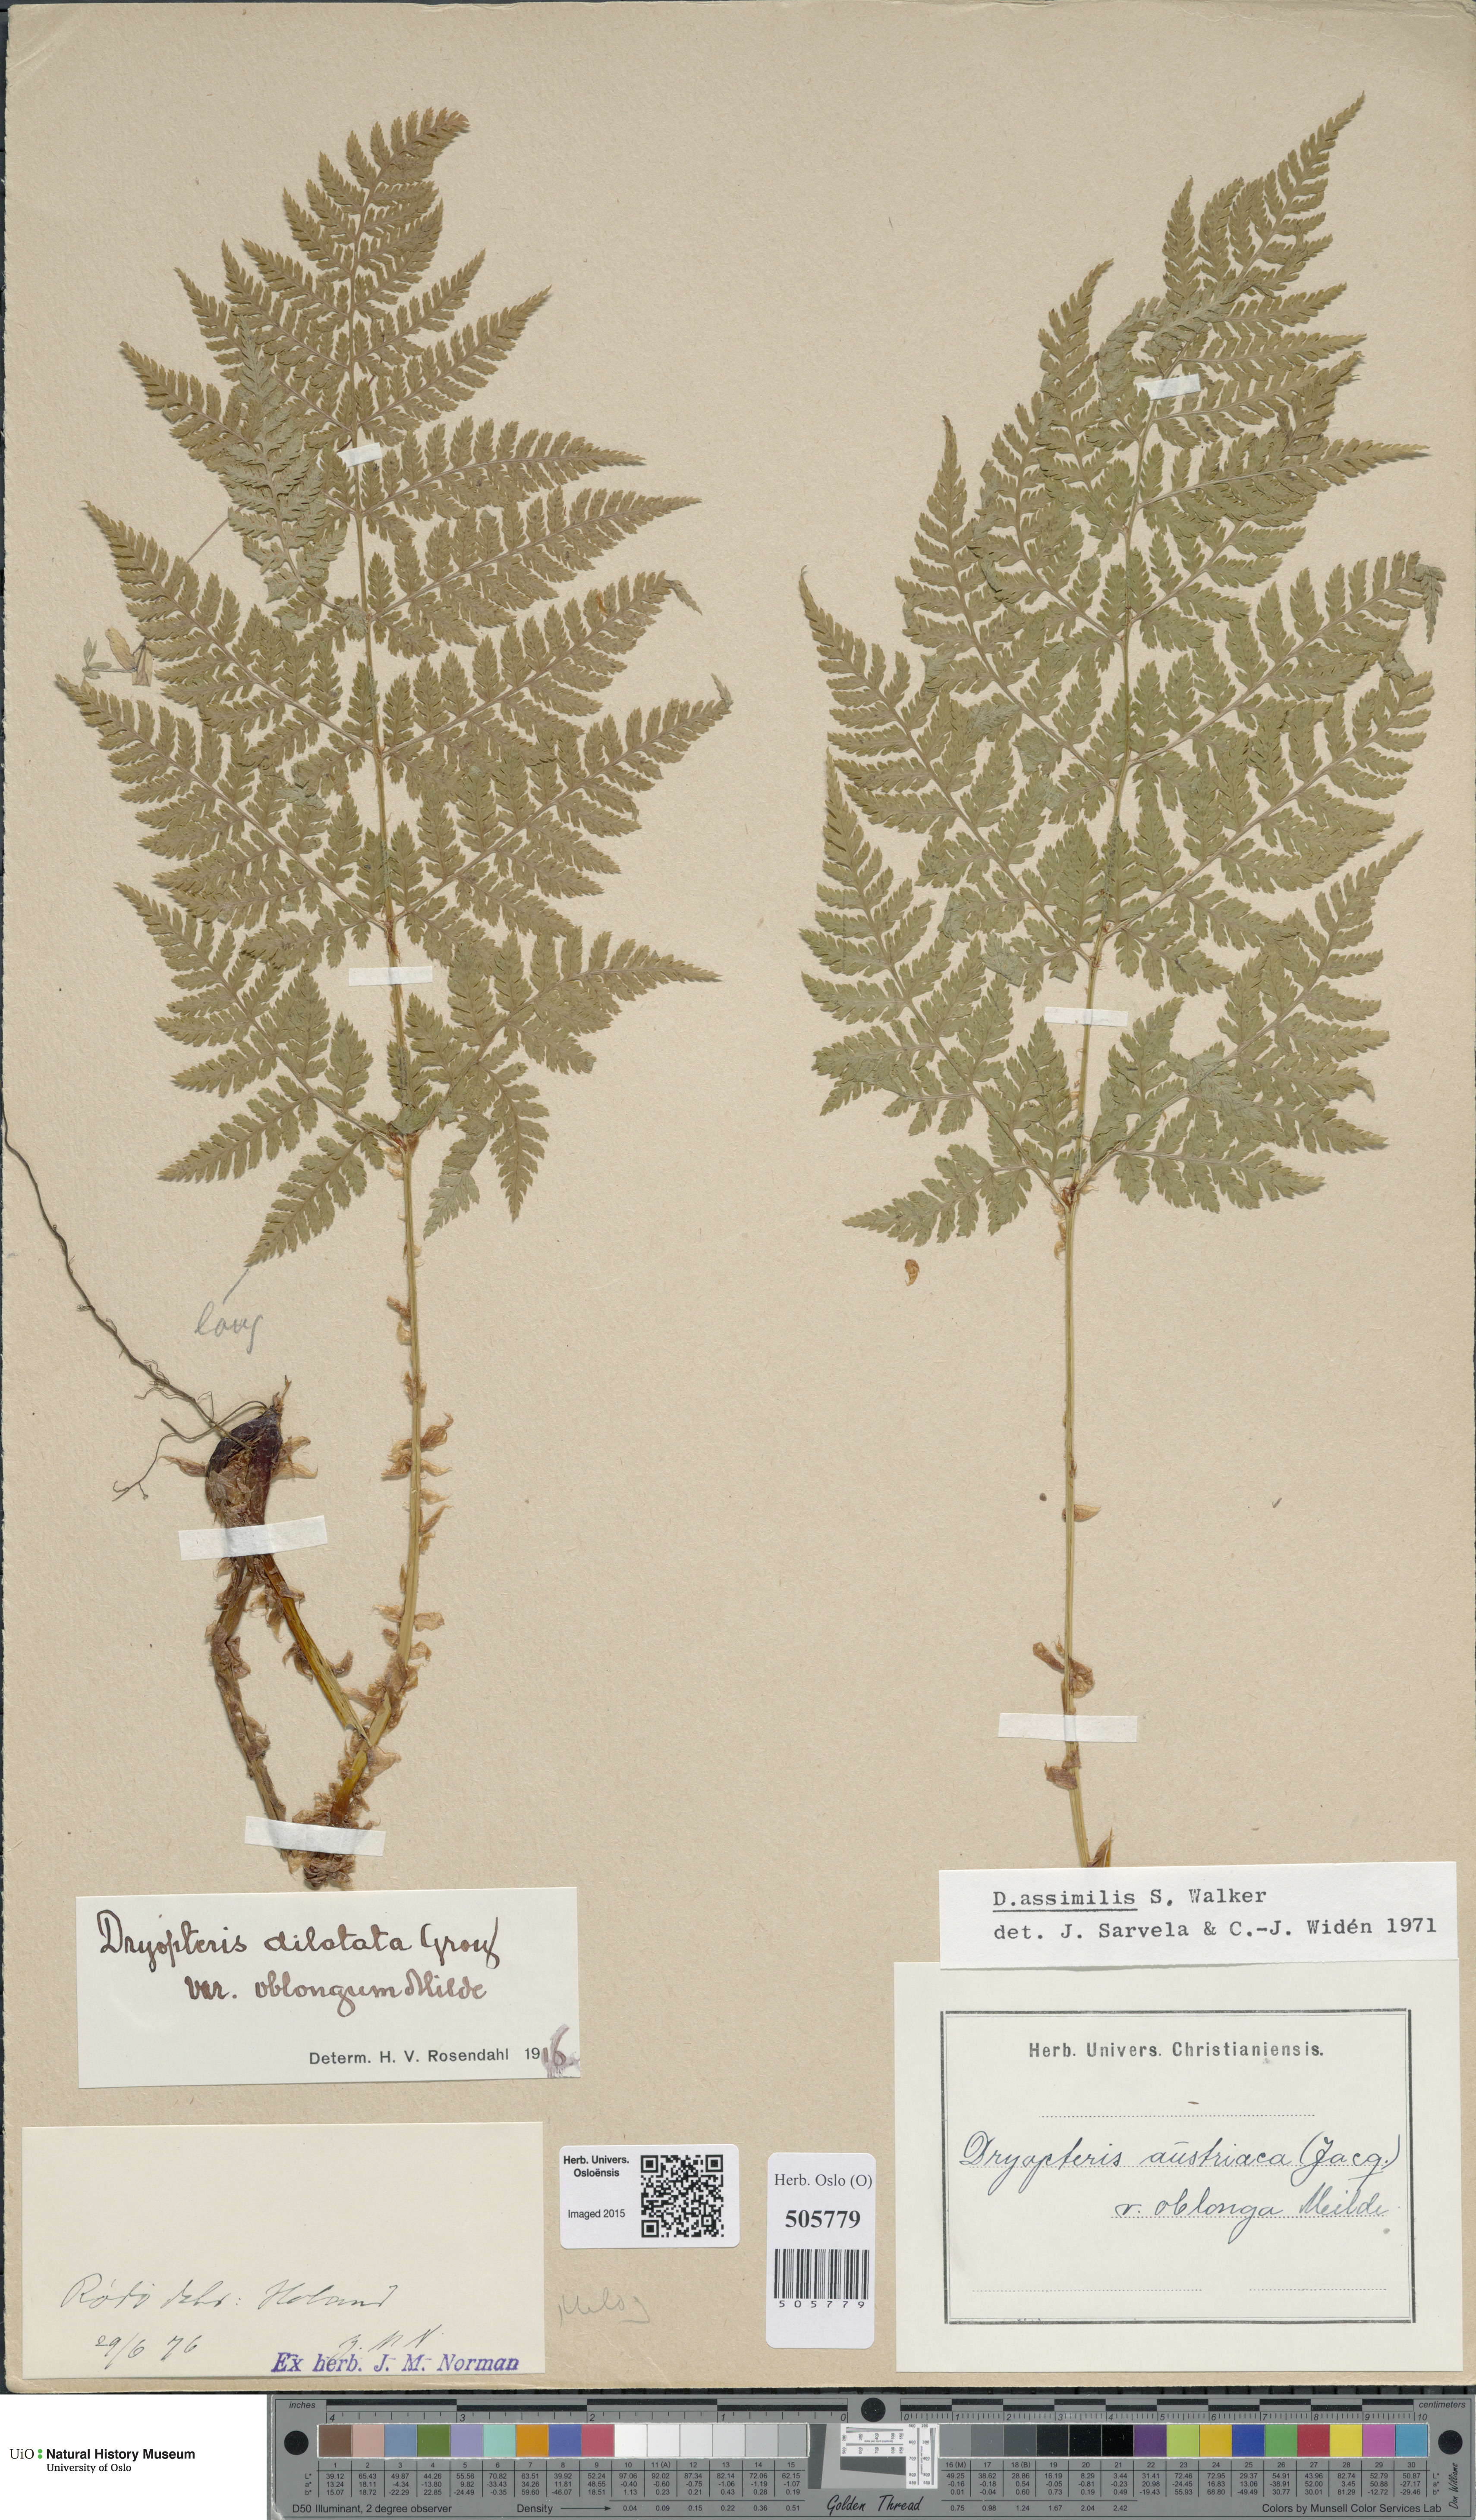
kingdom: Plantae
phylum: Tracheophyta
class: Polypodiopsida
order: Polypodiales
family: Dryopteridaceae
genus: Dryopteris
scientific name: Dryopteris expansa
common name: Northern buckler fern
